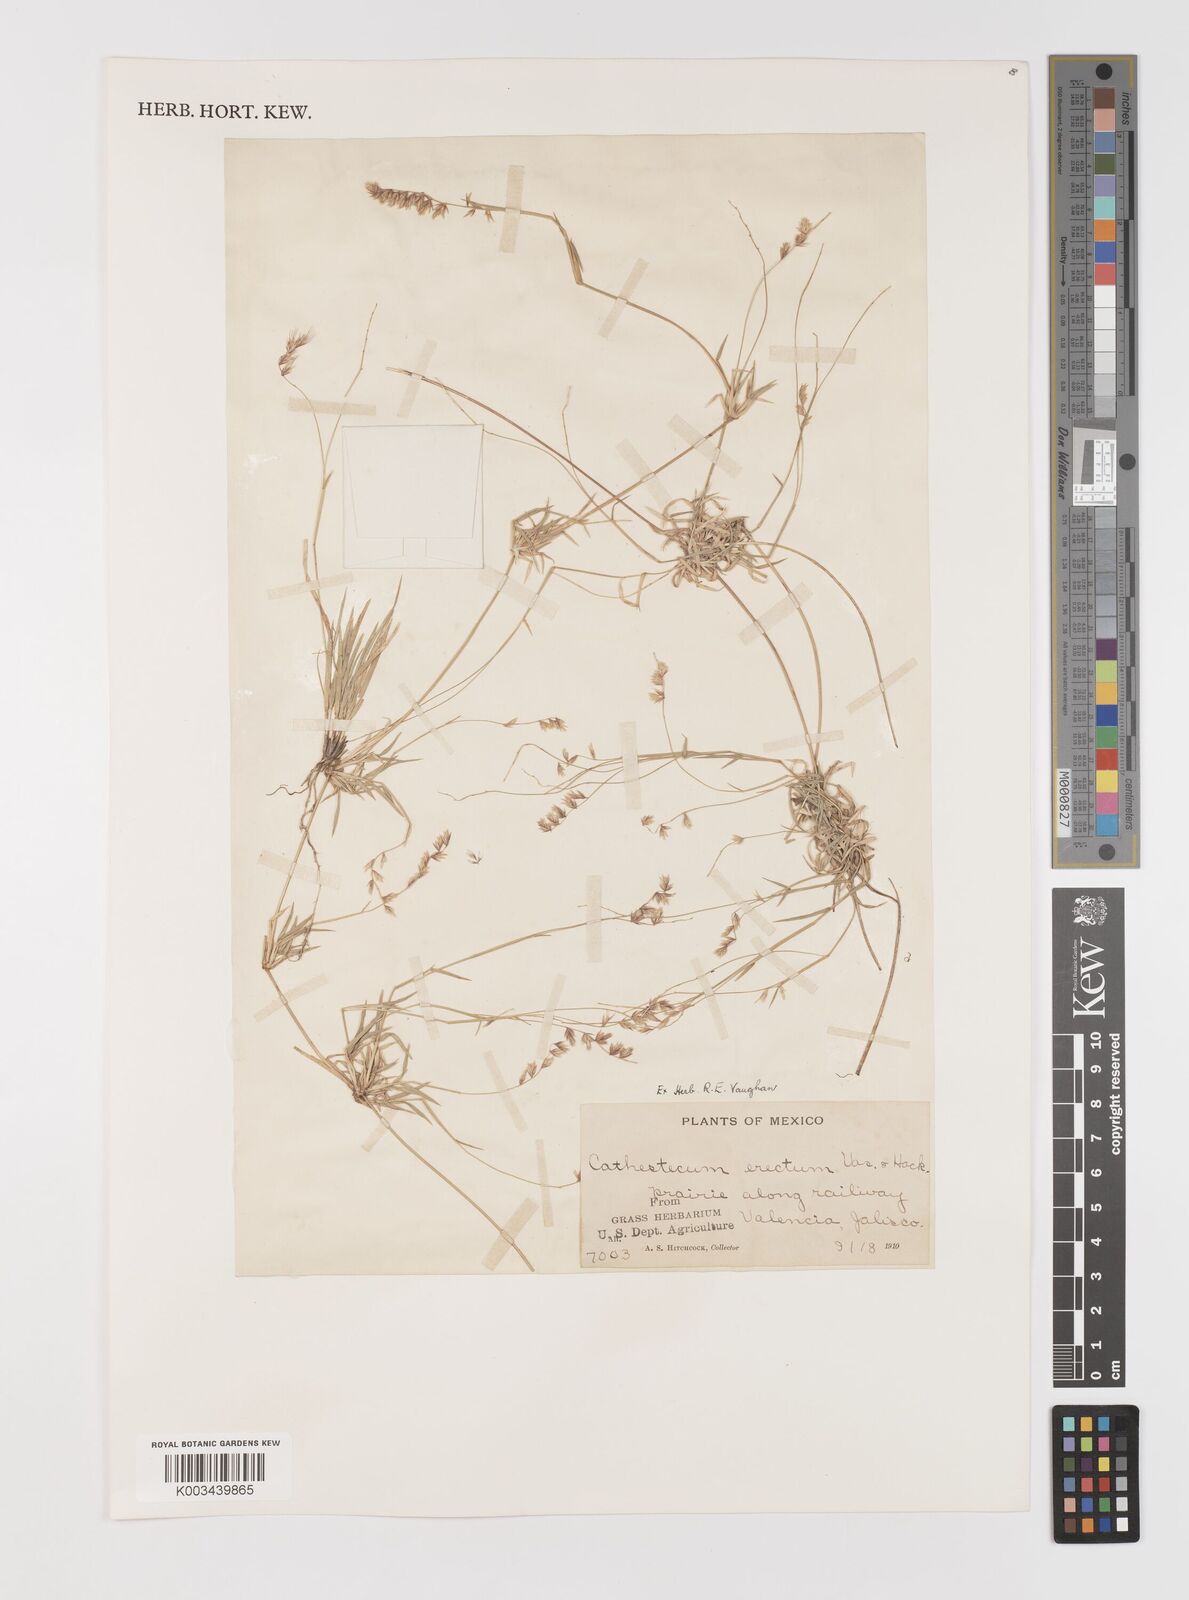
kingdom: Plantae
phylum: Tracheophyta
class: Liliopsida
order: Poales
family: Poaceae
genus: Bouteloua
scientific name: Bouteloua erecta
